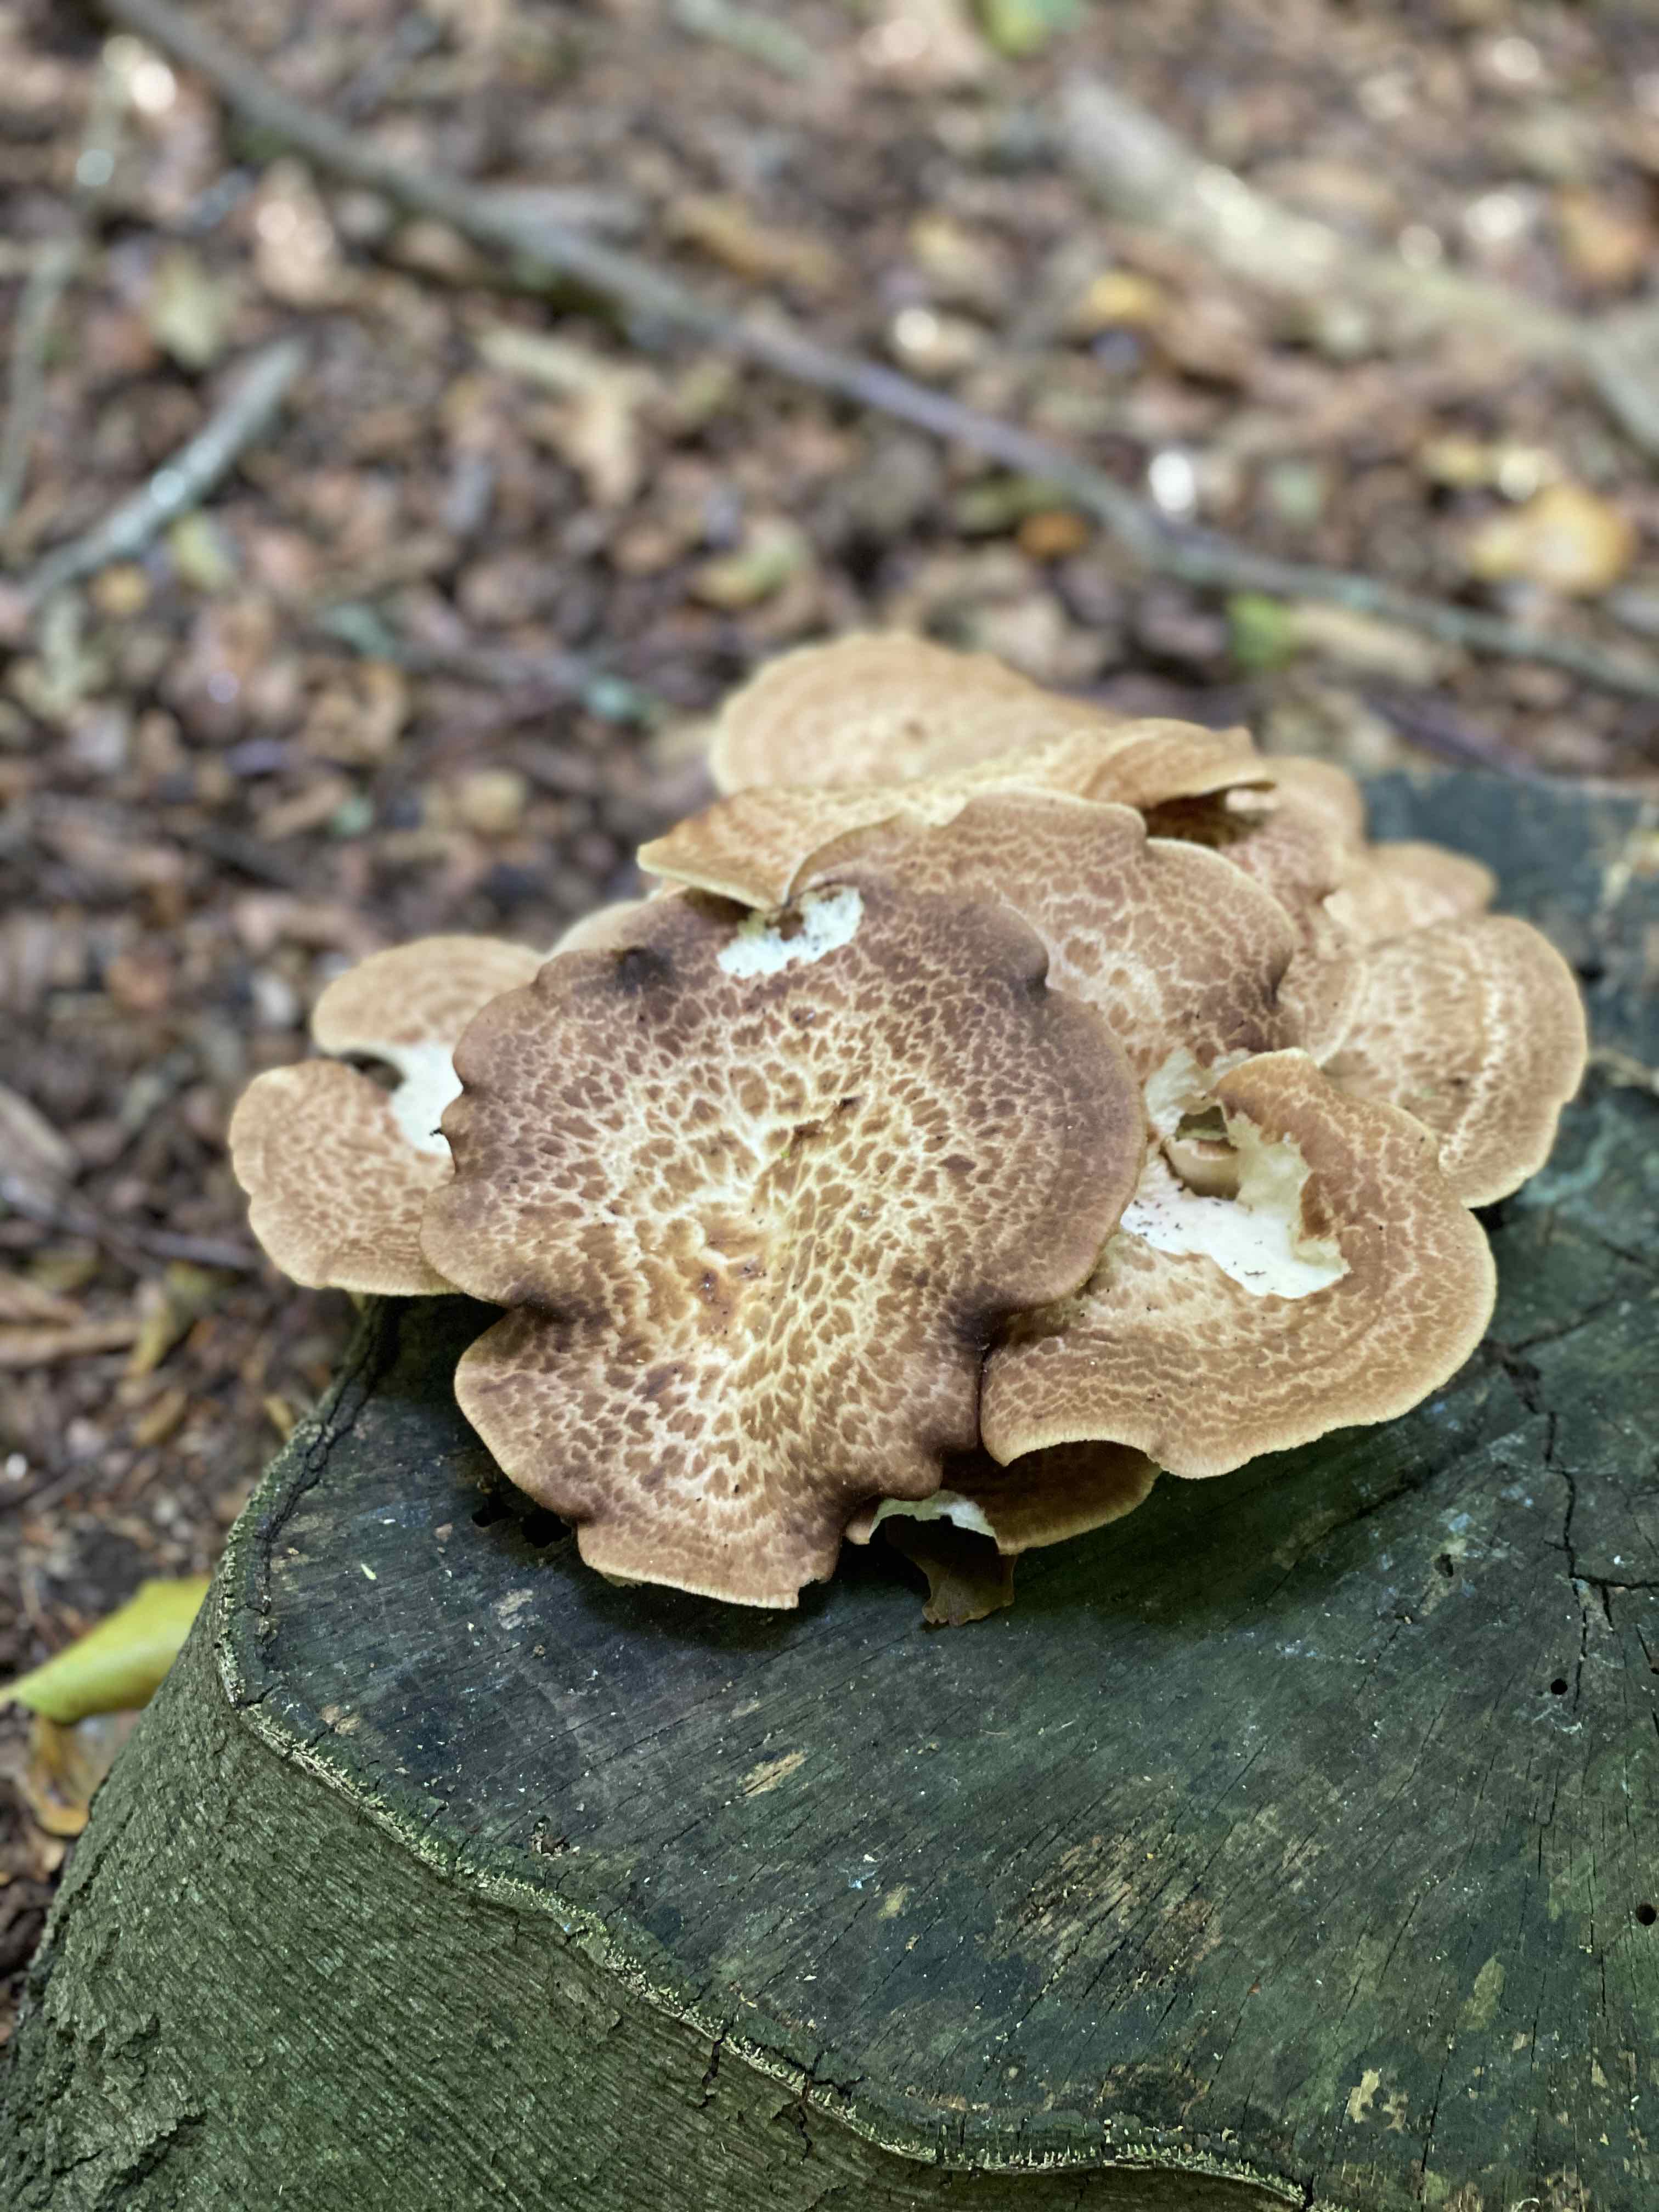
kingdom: Fungi
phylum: Basidiomycota
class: Agaricomycetes
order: Polyporales
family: Polyporaceae
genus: Polyporus
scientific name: Polyporus tuberaster
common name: knoldet stilkporesvamp
